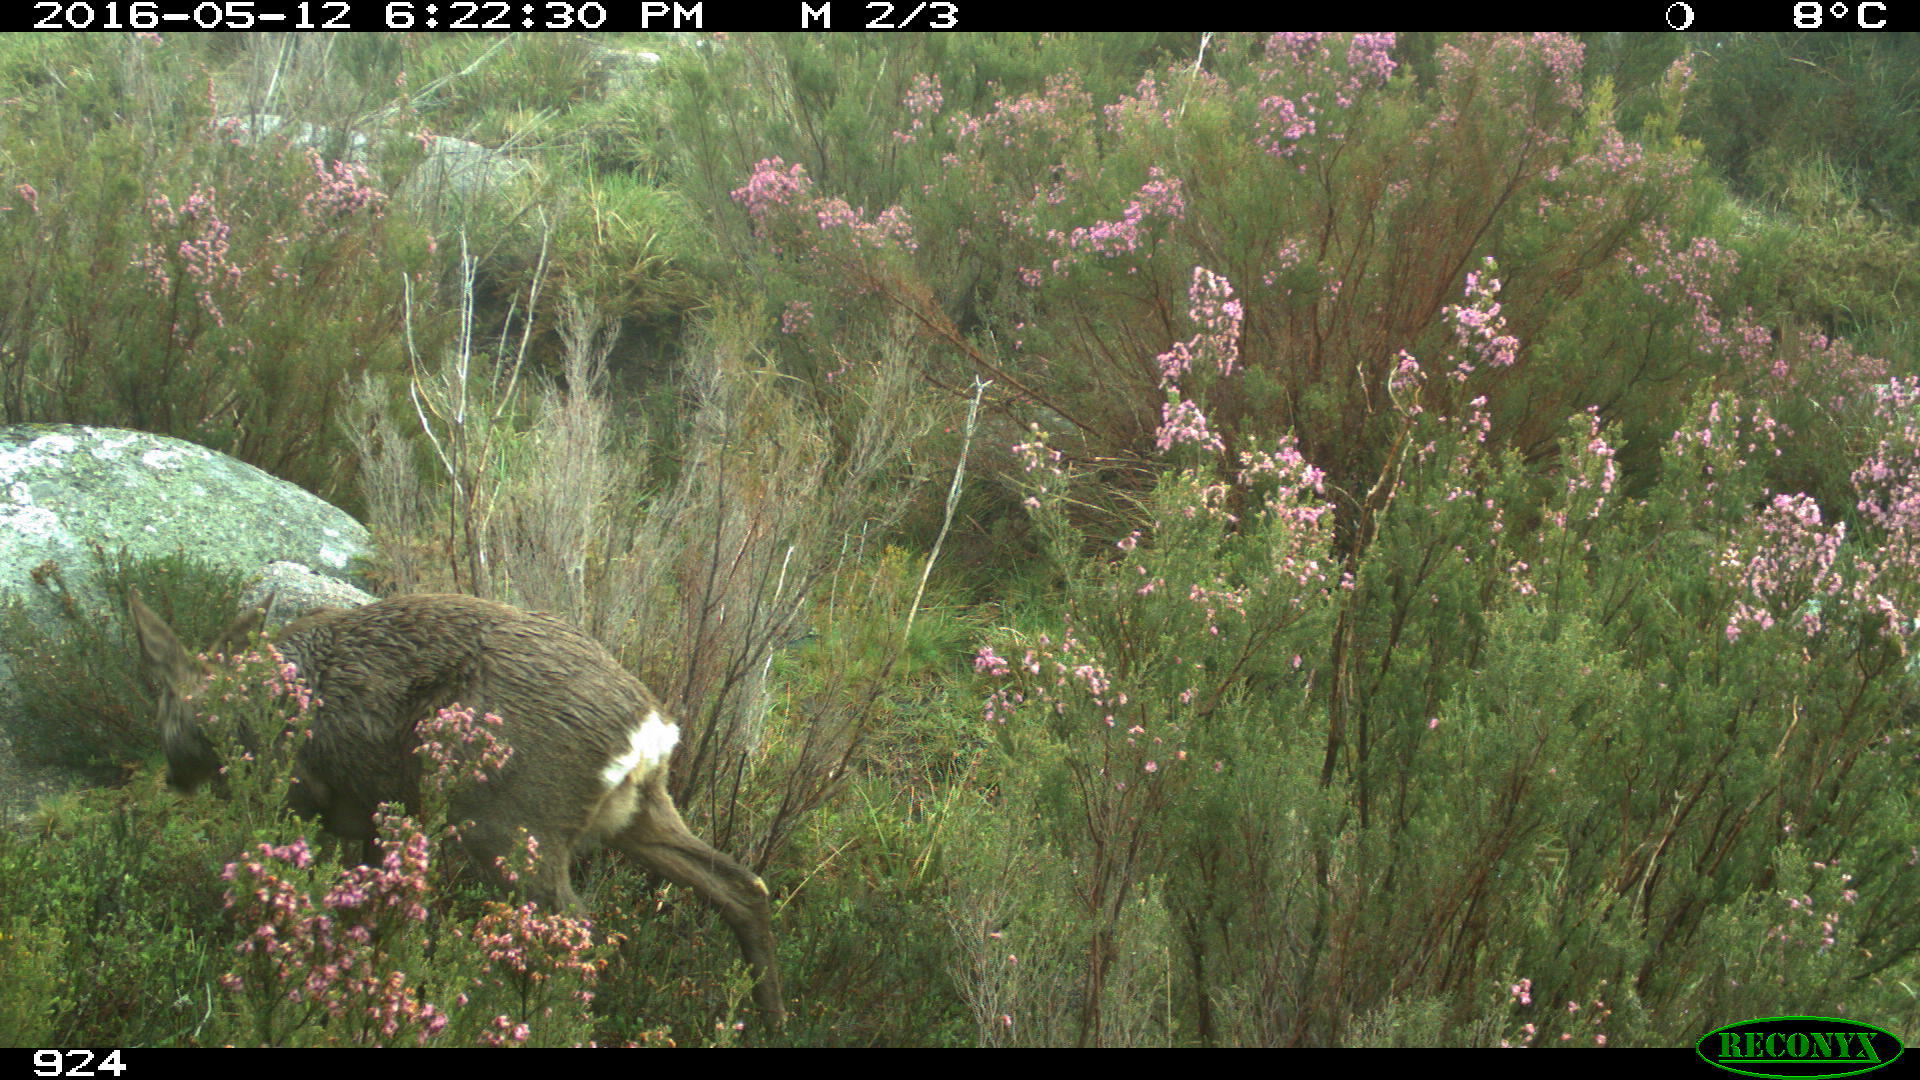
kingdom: Animalia
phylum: Chordata
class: Mammalia
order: Artiodactyla
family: Cervidae
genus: Capreolus
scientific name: Capreolus capreolus
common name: Western roe deer
